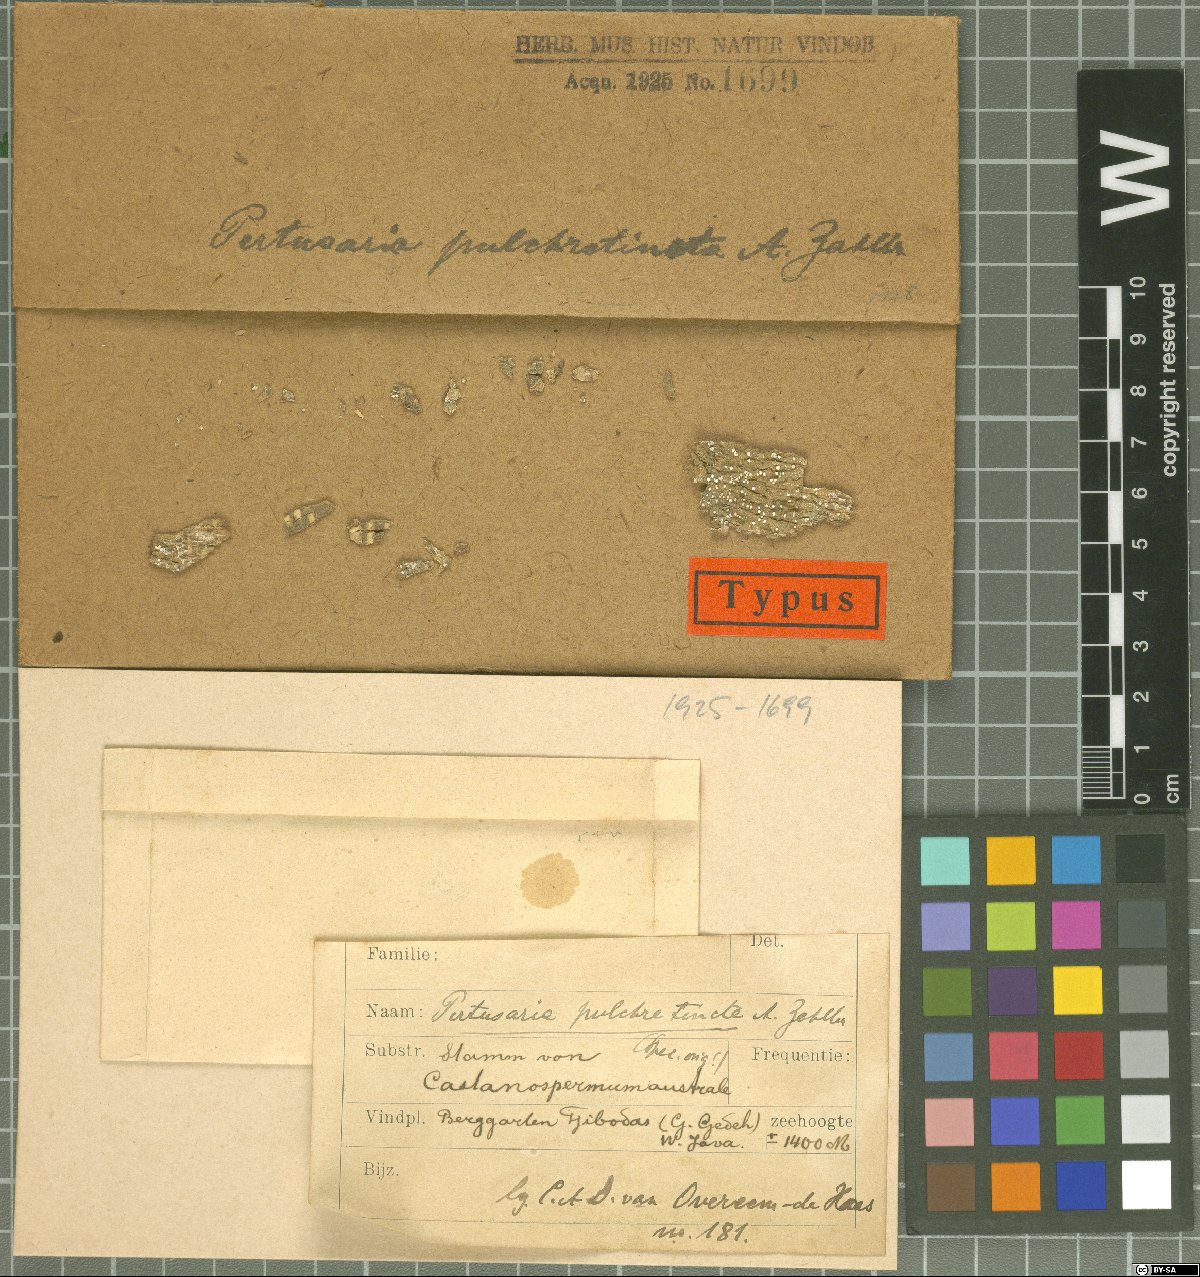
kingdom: Fungi
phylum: Ascomycota
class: Lecanoromycetes
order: Pertusariales
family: Pertusariaceae
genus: Pertusaria
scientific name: Pertusaria
